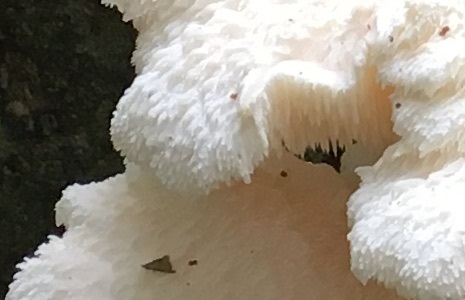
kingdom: Fungi
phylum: Basidiomycota
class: Agaricomycetes
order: Russulales
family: Hericiaceae
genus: Hericium
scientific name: Hericium cirrhatum
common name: børstepigsvamp
